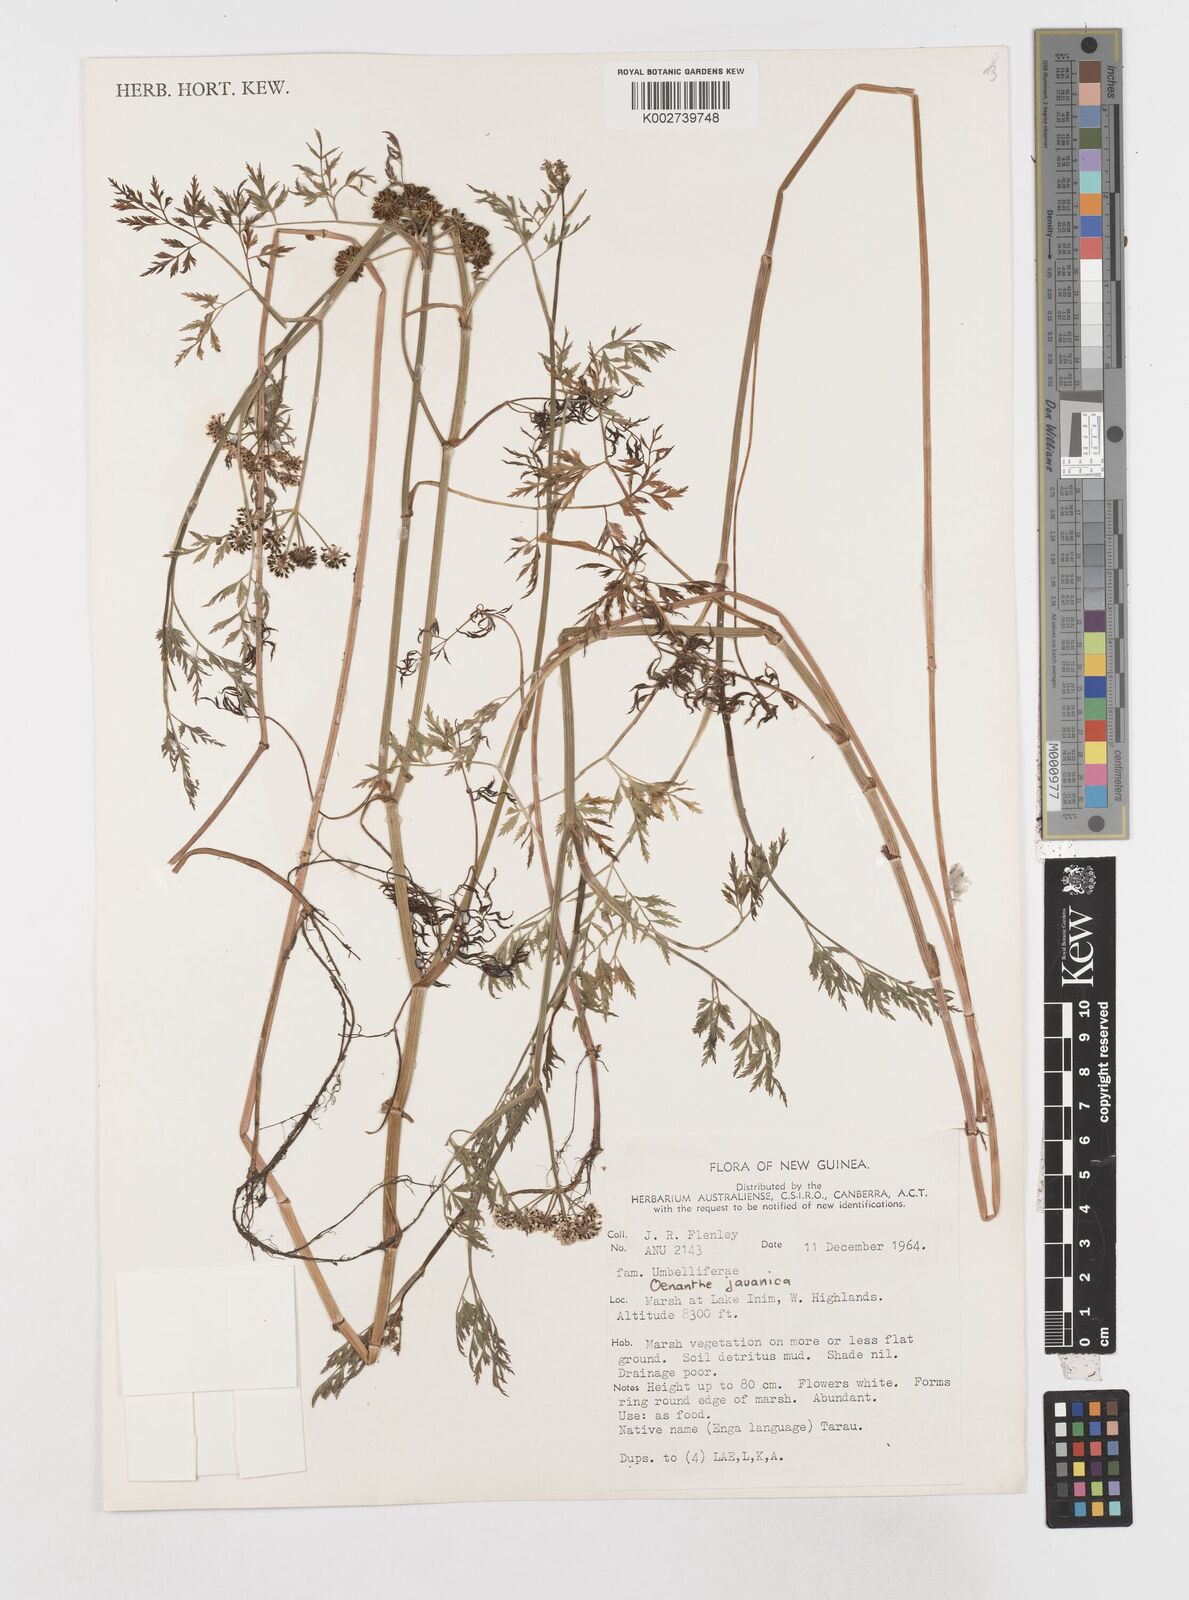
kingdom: Plantae
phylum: Tracheophyta
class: Magnoliopsida
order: Apiales
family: Apiaceae
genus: Oenanthe
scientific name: Oenanthe javanica
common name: Java water-dropwort
